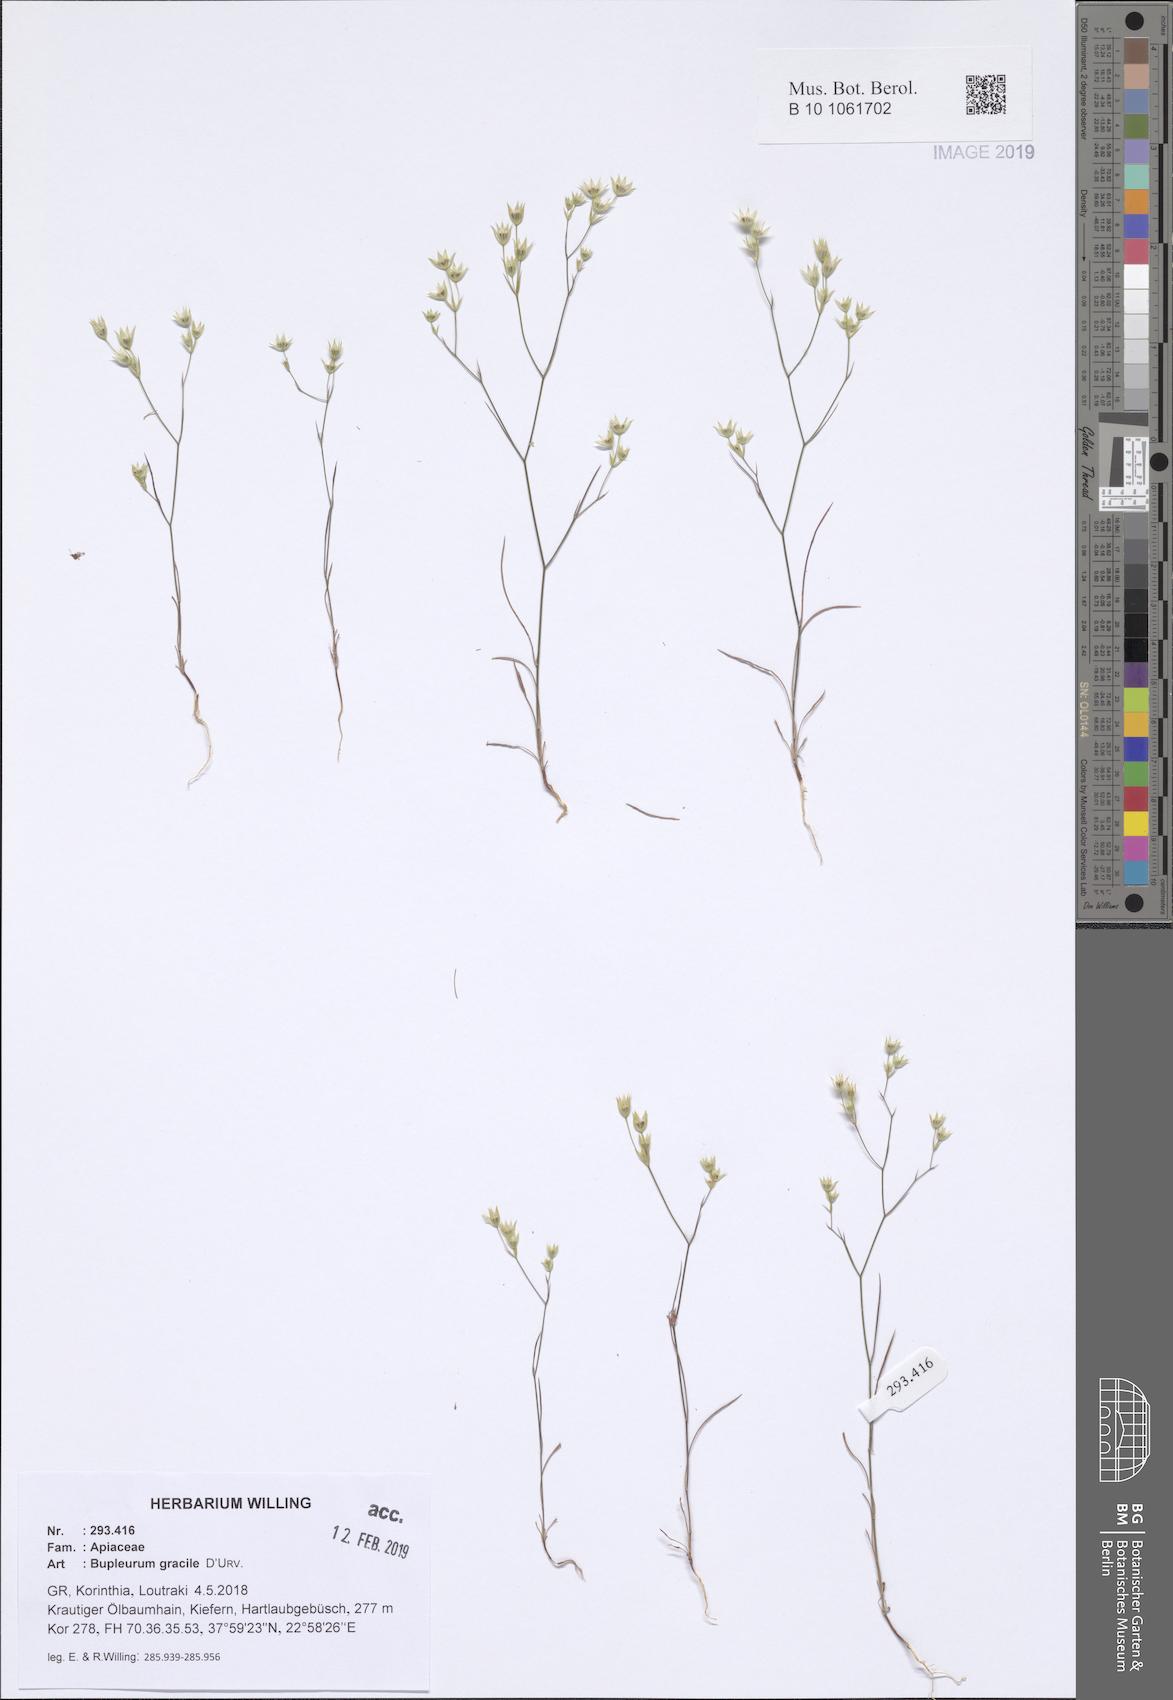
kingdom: Plantae
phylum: Tracheophyta
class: Magnoliopsida
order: Apiales
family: Apiaceae
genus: Bupleurum
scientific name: Bupleurum gracile
